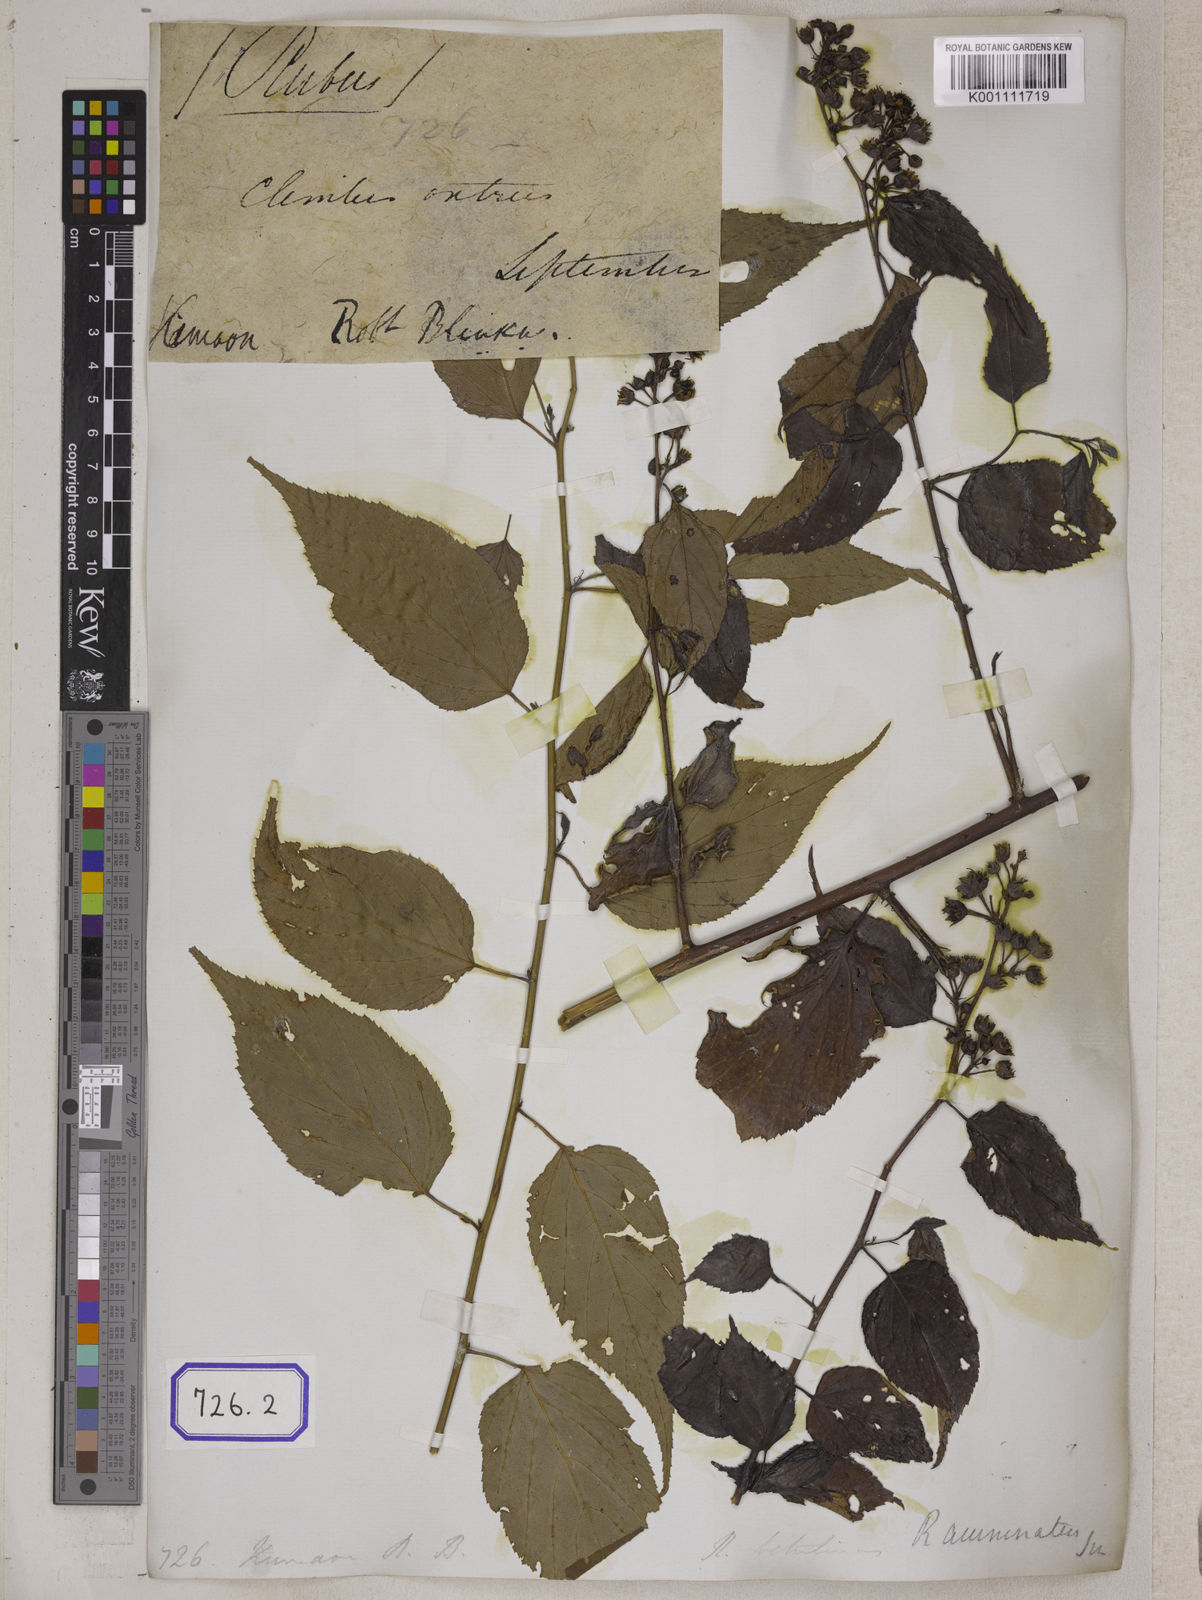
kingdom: Plantae
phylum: Tracheophyta
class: Magnoliopsida
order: Rosales
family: Rosaceae
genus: Rubus
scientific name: Rubus acuminatus
